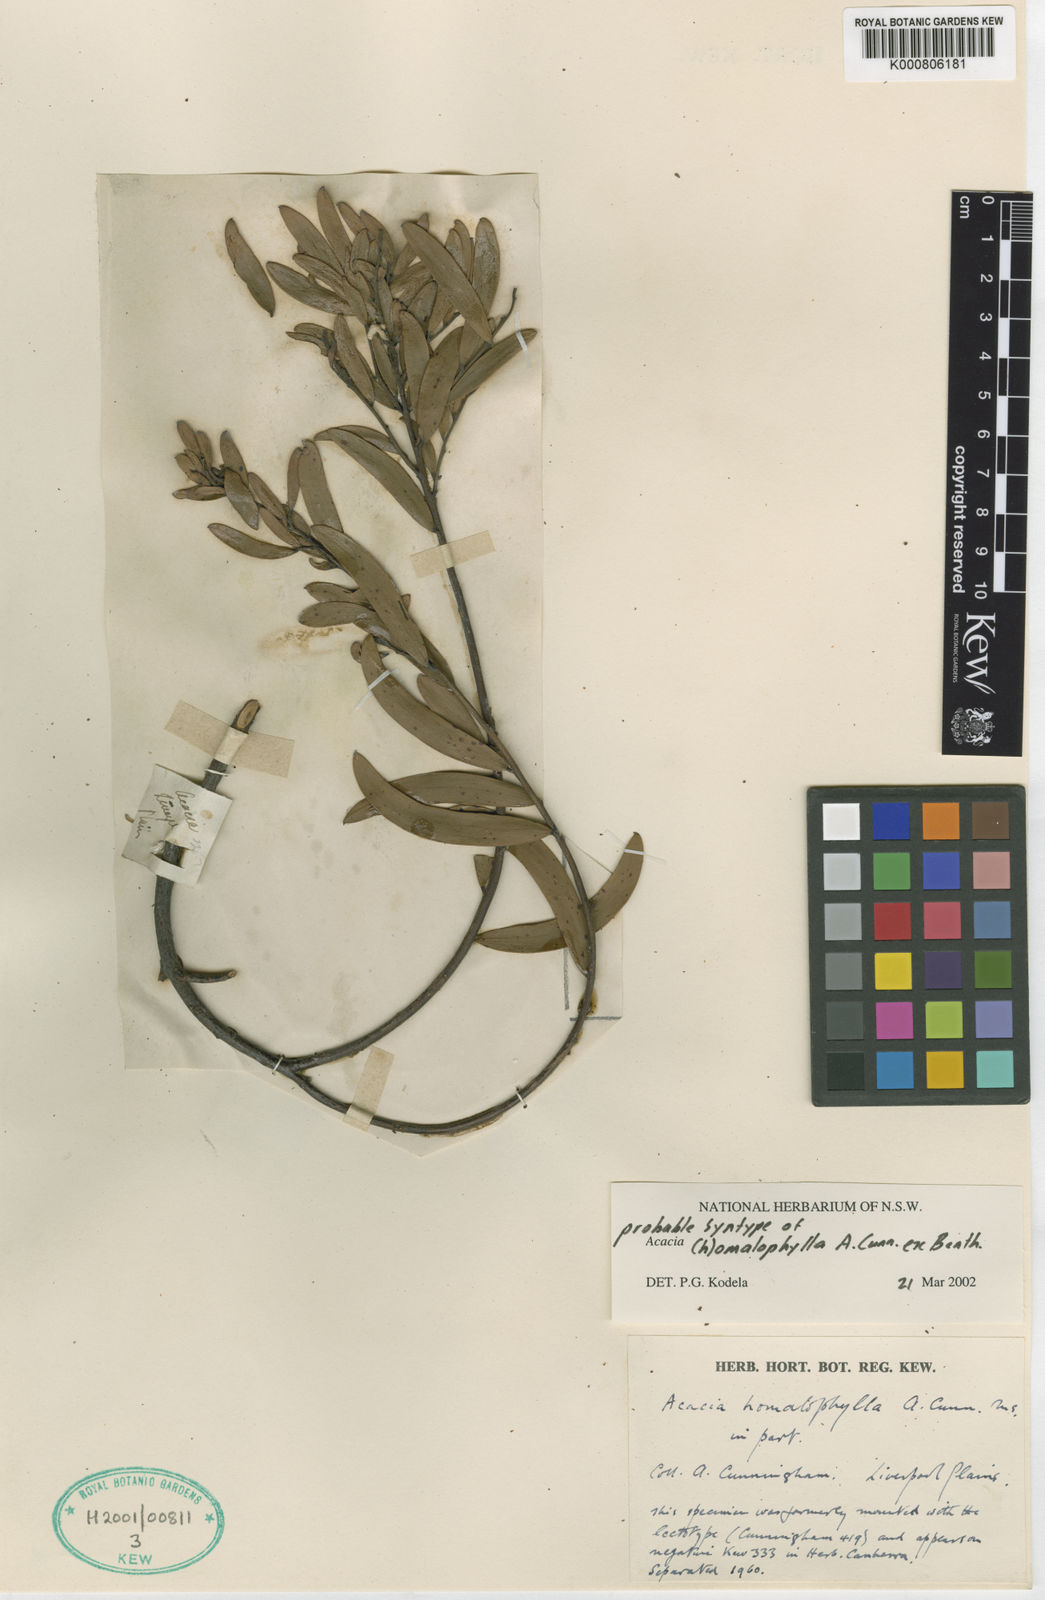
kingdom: Plantae
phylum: Tracheophyta
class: Magnoliopsida
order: Fabales
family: Fabaceae
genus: Acacia
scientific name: Acacia homalophylla
